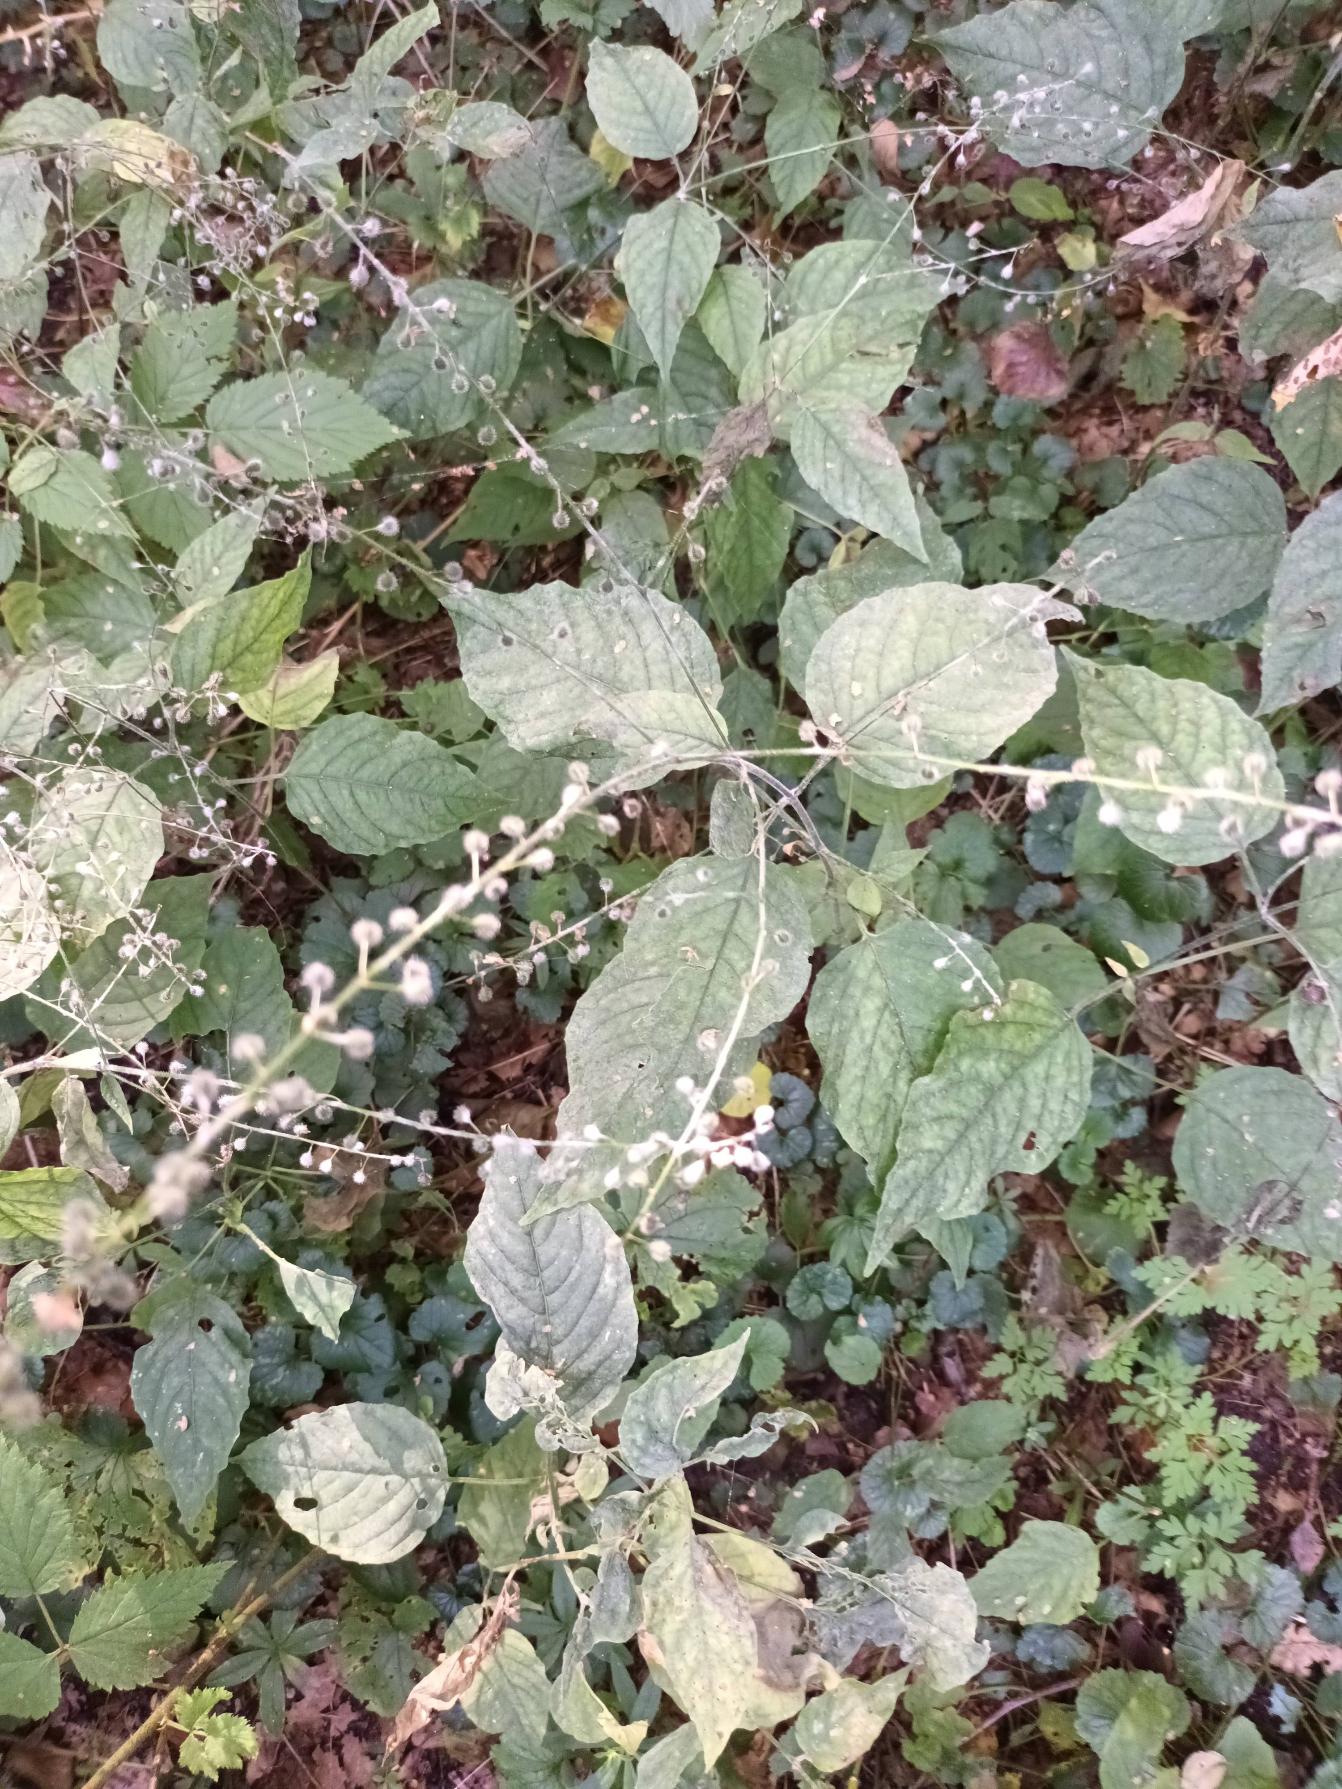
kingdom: Plantae
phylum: Tracheophyta
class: Magnoliopsida
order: Myrtales
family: Onagraceae
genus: Circaea
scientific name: Circaea lutetiana
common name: Dunet steffensurt
